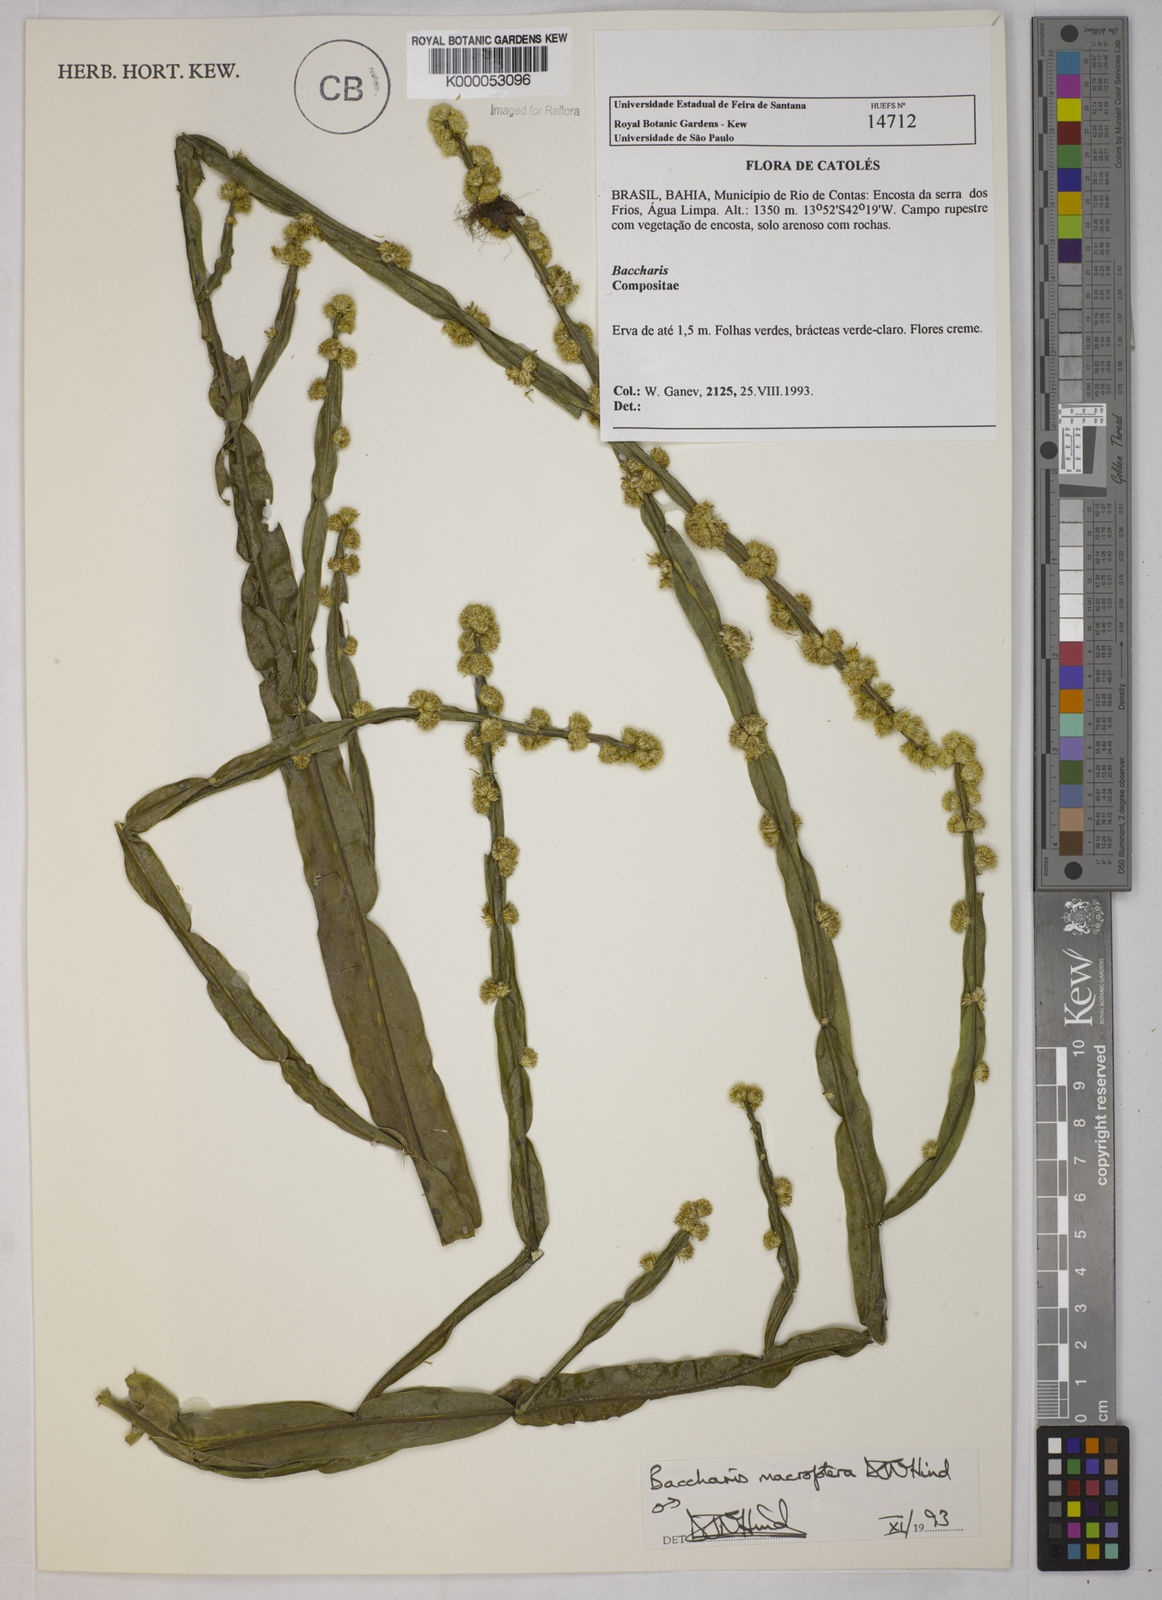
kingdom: Plantae
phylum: Tracheophyta
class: Magnoliopsida
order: Asterales
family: Asteraceae
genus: Baccharis
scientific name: Baccharis sagittalis
